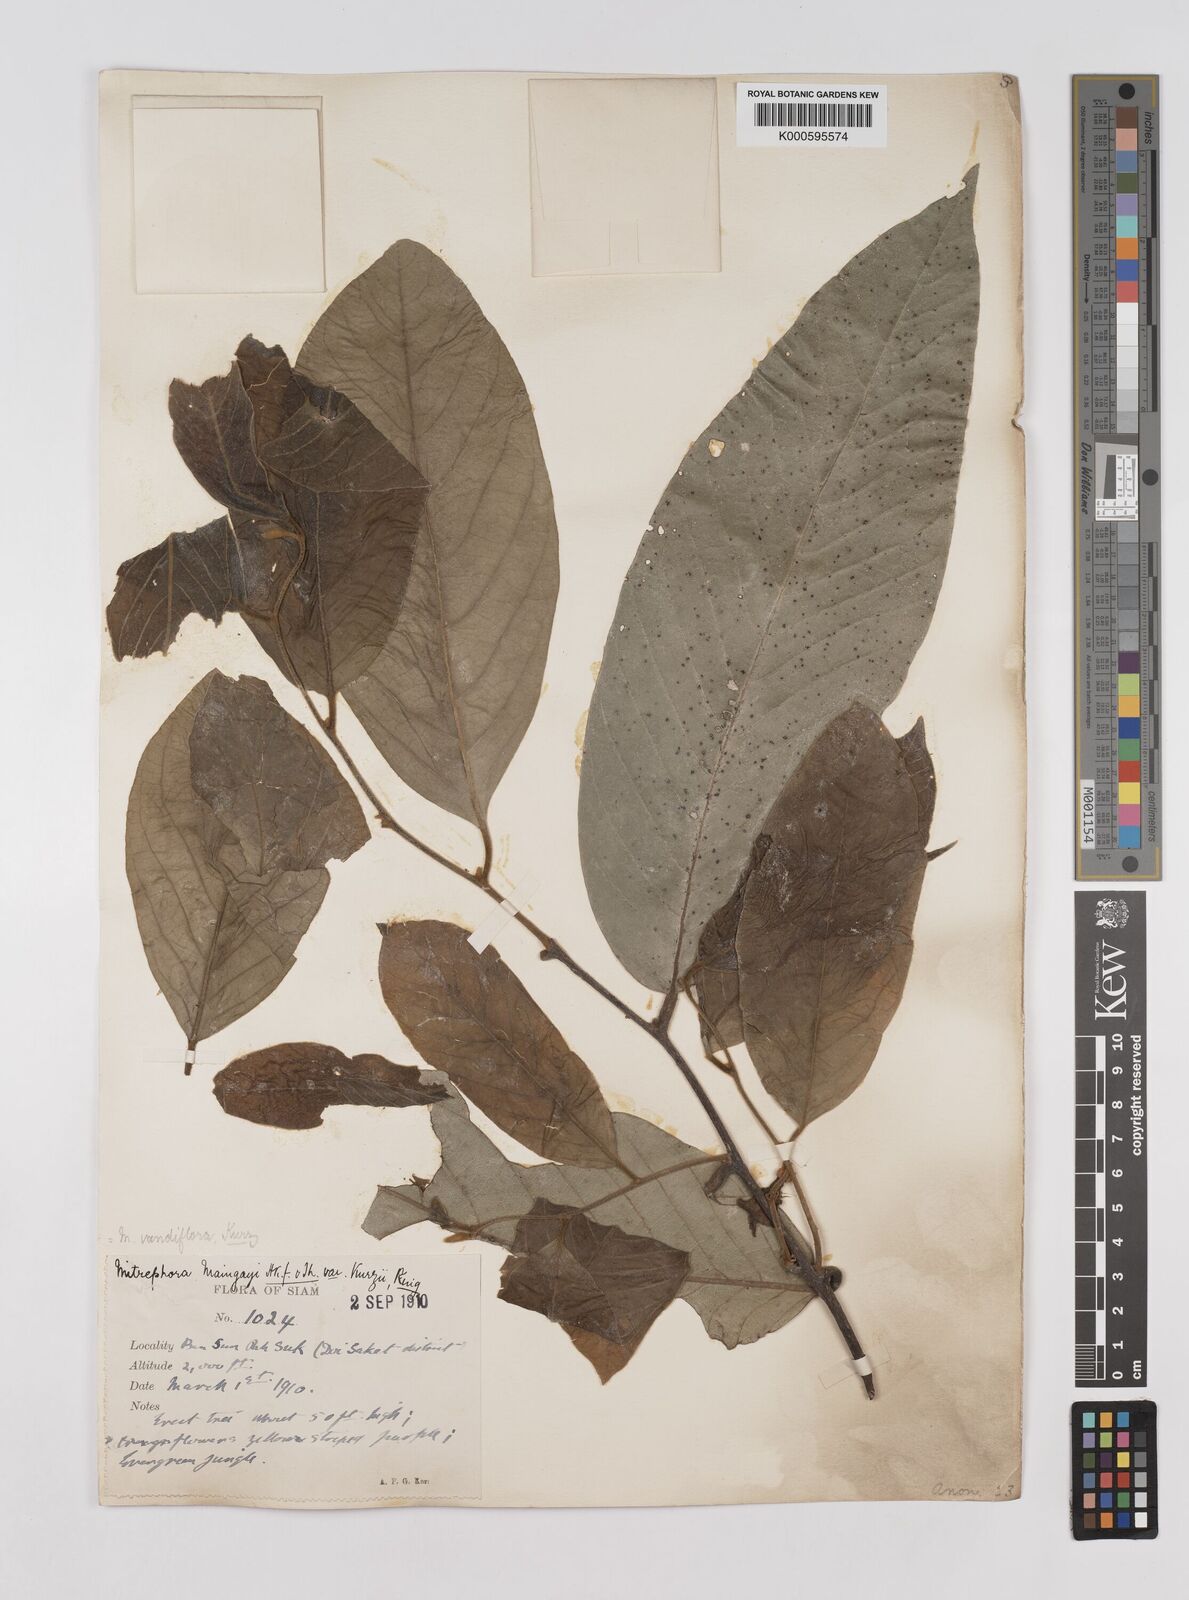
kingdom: Plantae
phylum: Tracheophyta
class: Magnoliopsida
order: Magnoliales
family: Annonaceae
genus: Mitrephora
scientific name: Mitrephora teysmannii
